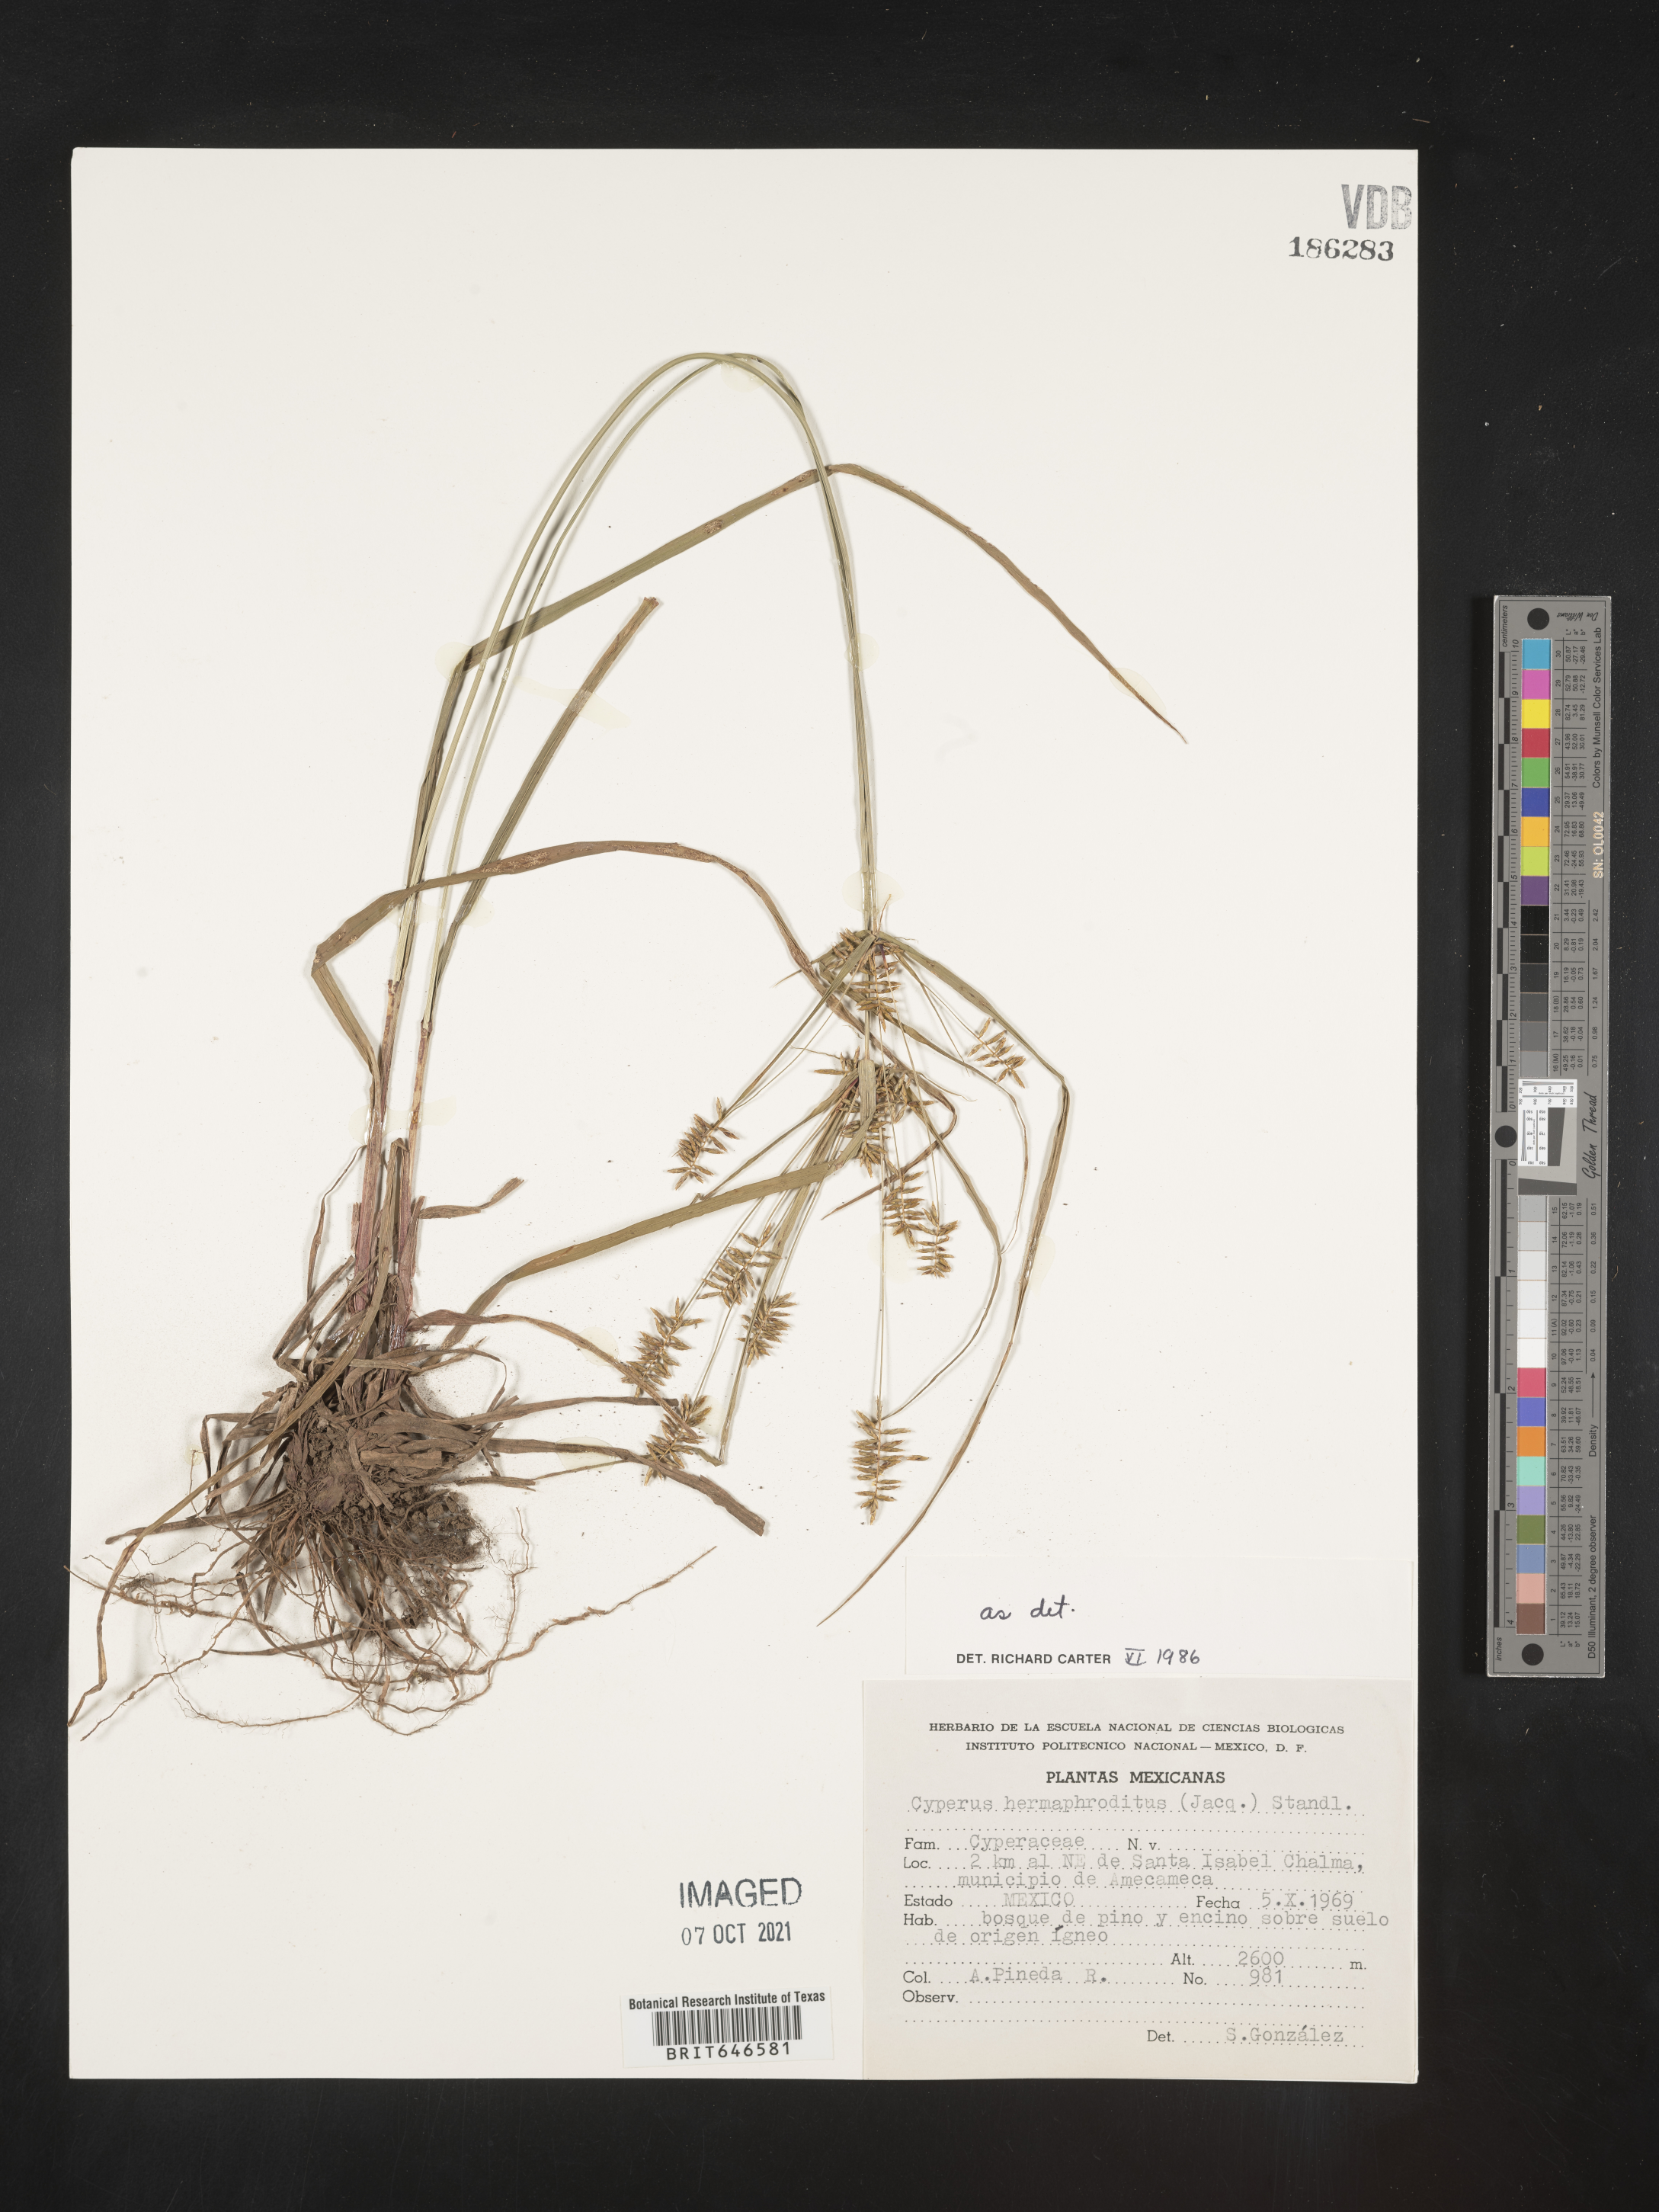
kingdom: Plantae
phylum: Tracheophyta
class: Liliopsida
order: Poales
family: Cyperaceae
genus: Cyperus
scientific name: Cyperus
